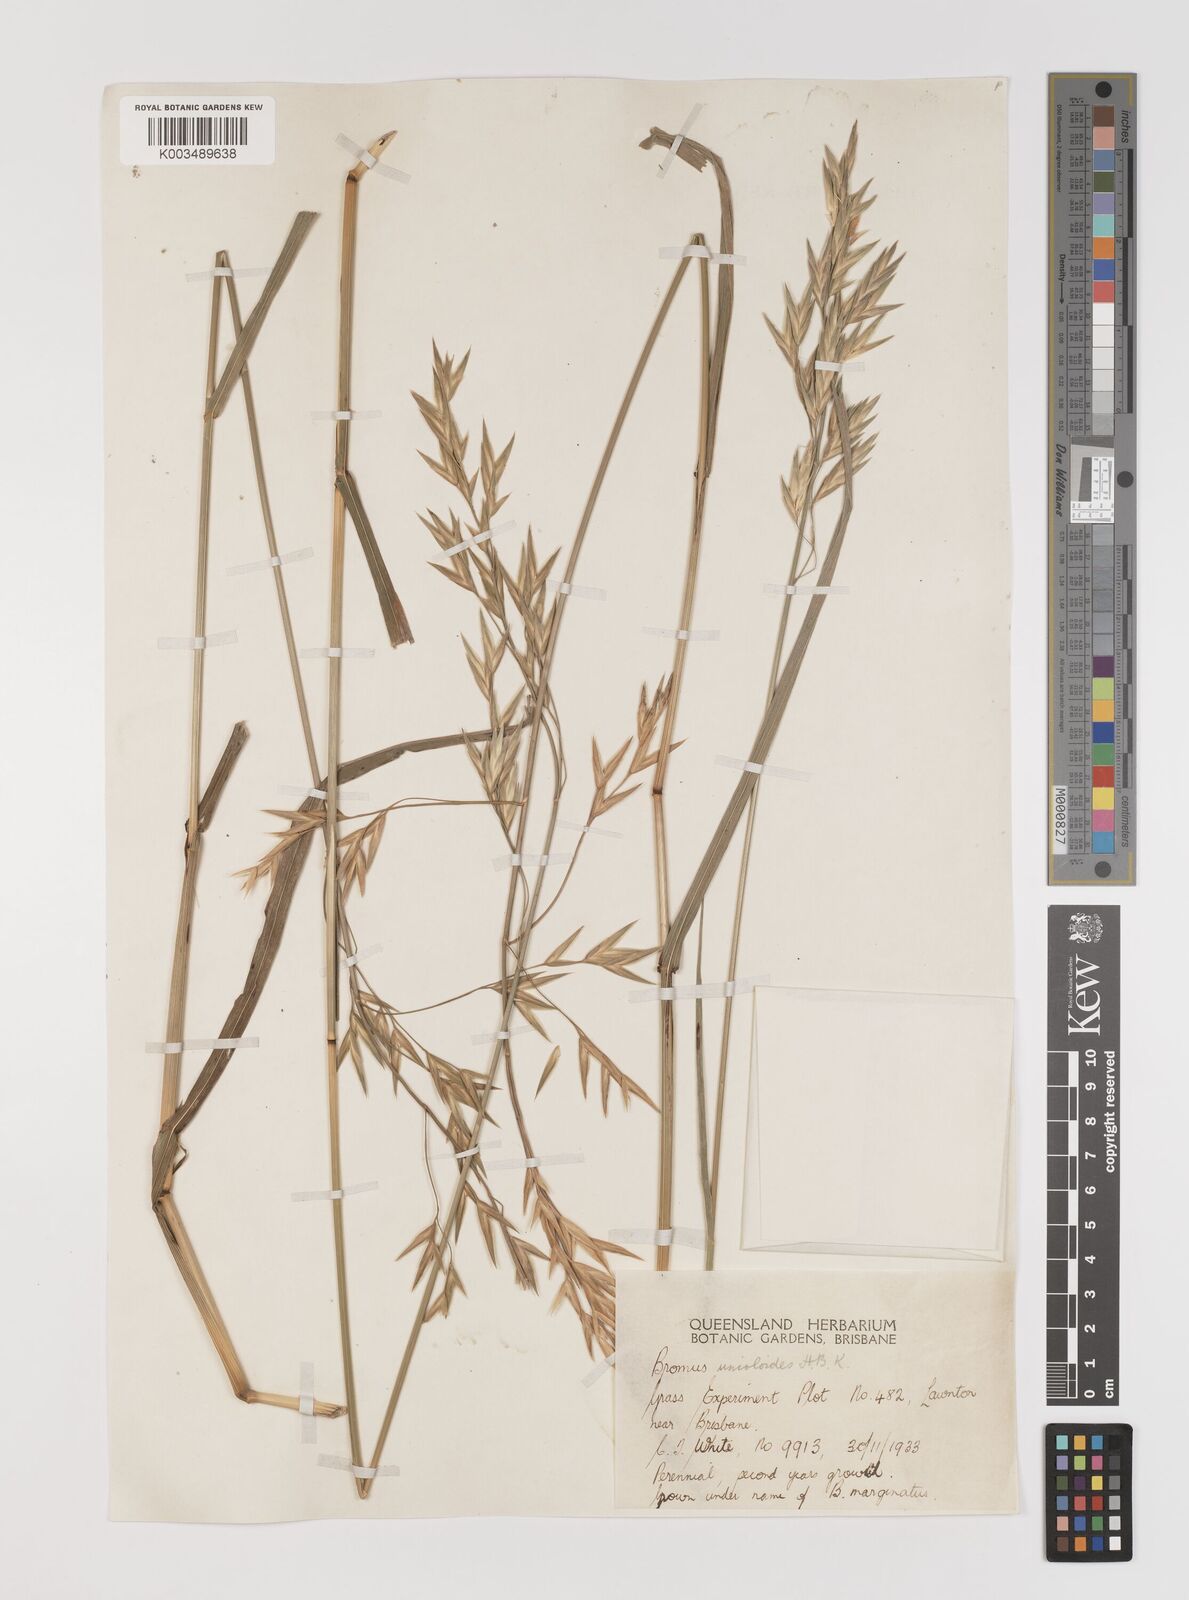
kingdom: Plantae
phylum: Tracheophyta
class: Liliopsida
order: Poales
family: Poaceae
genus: Bromus
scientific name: Bromus catharticus
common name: Rescuegrass
